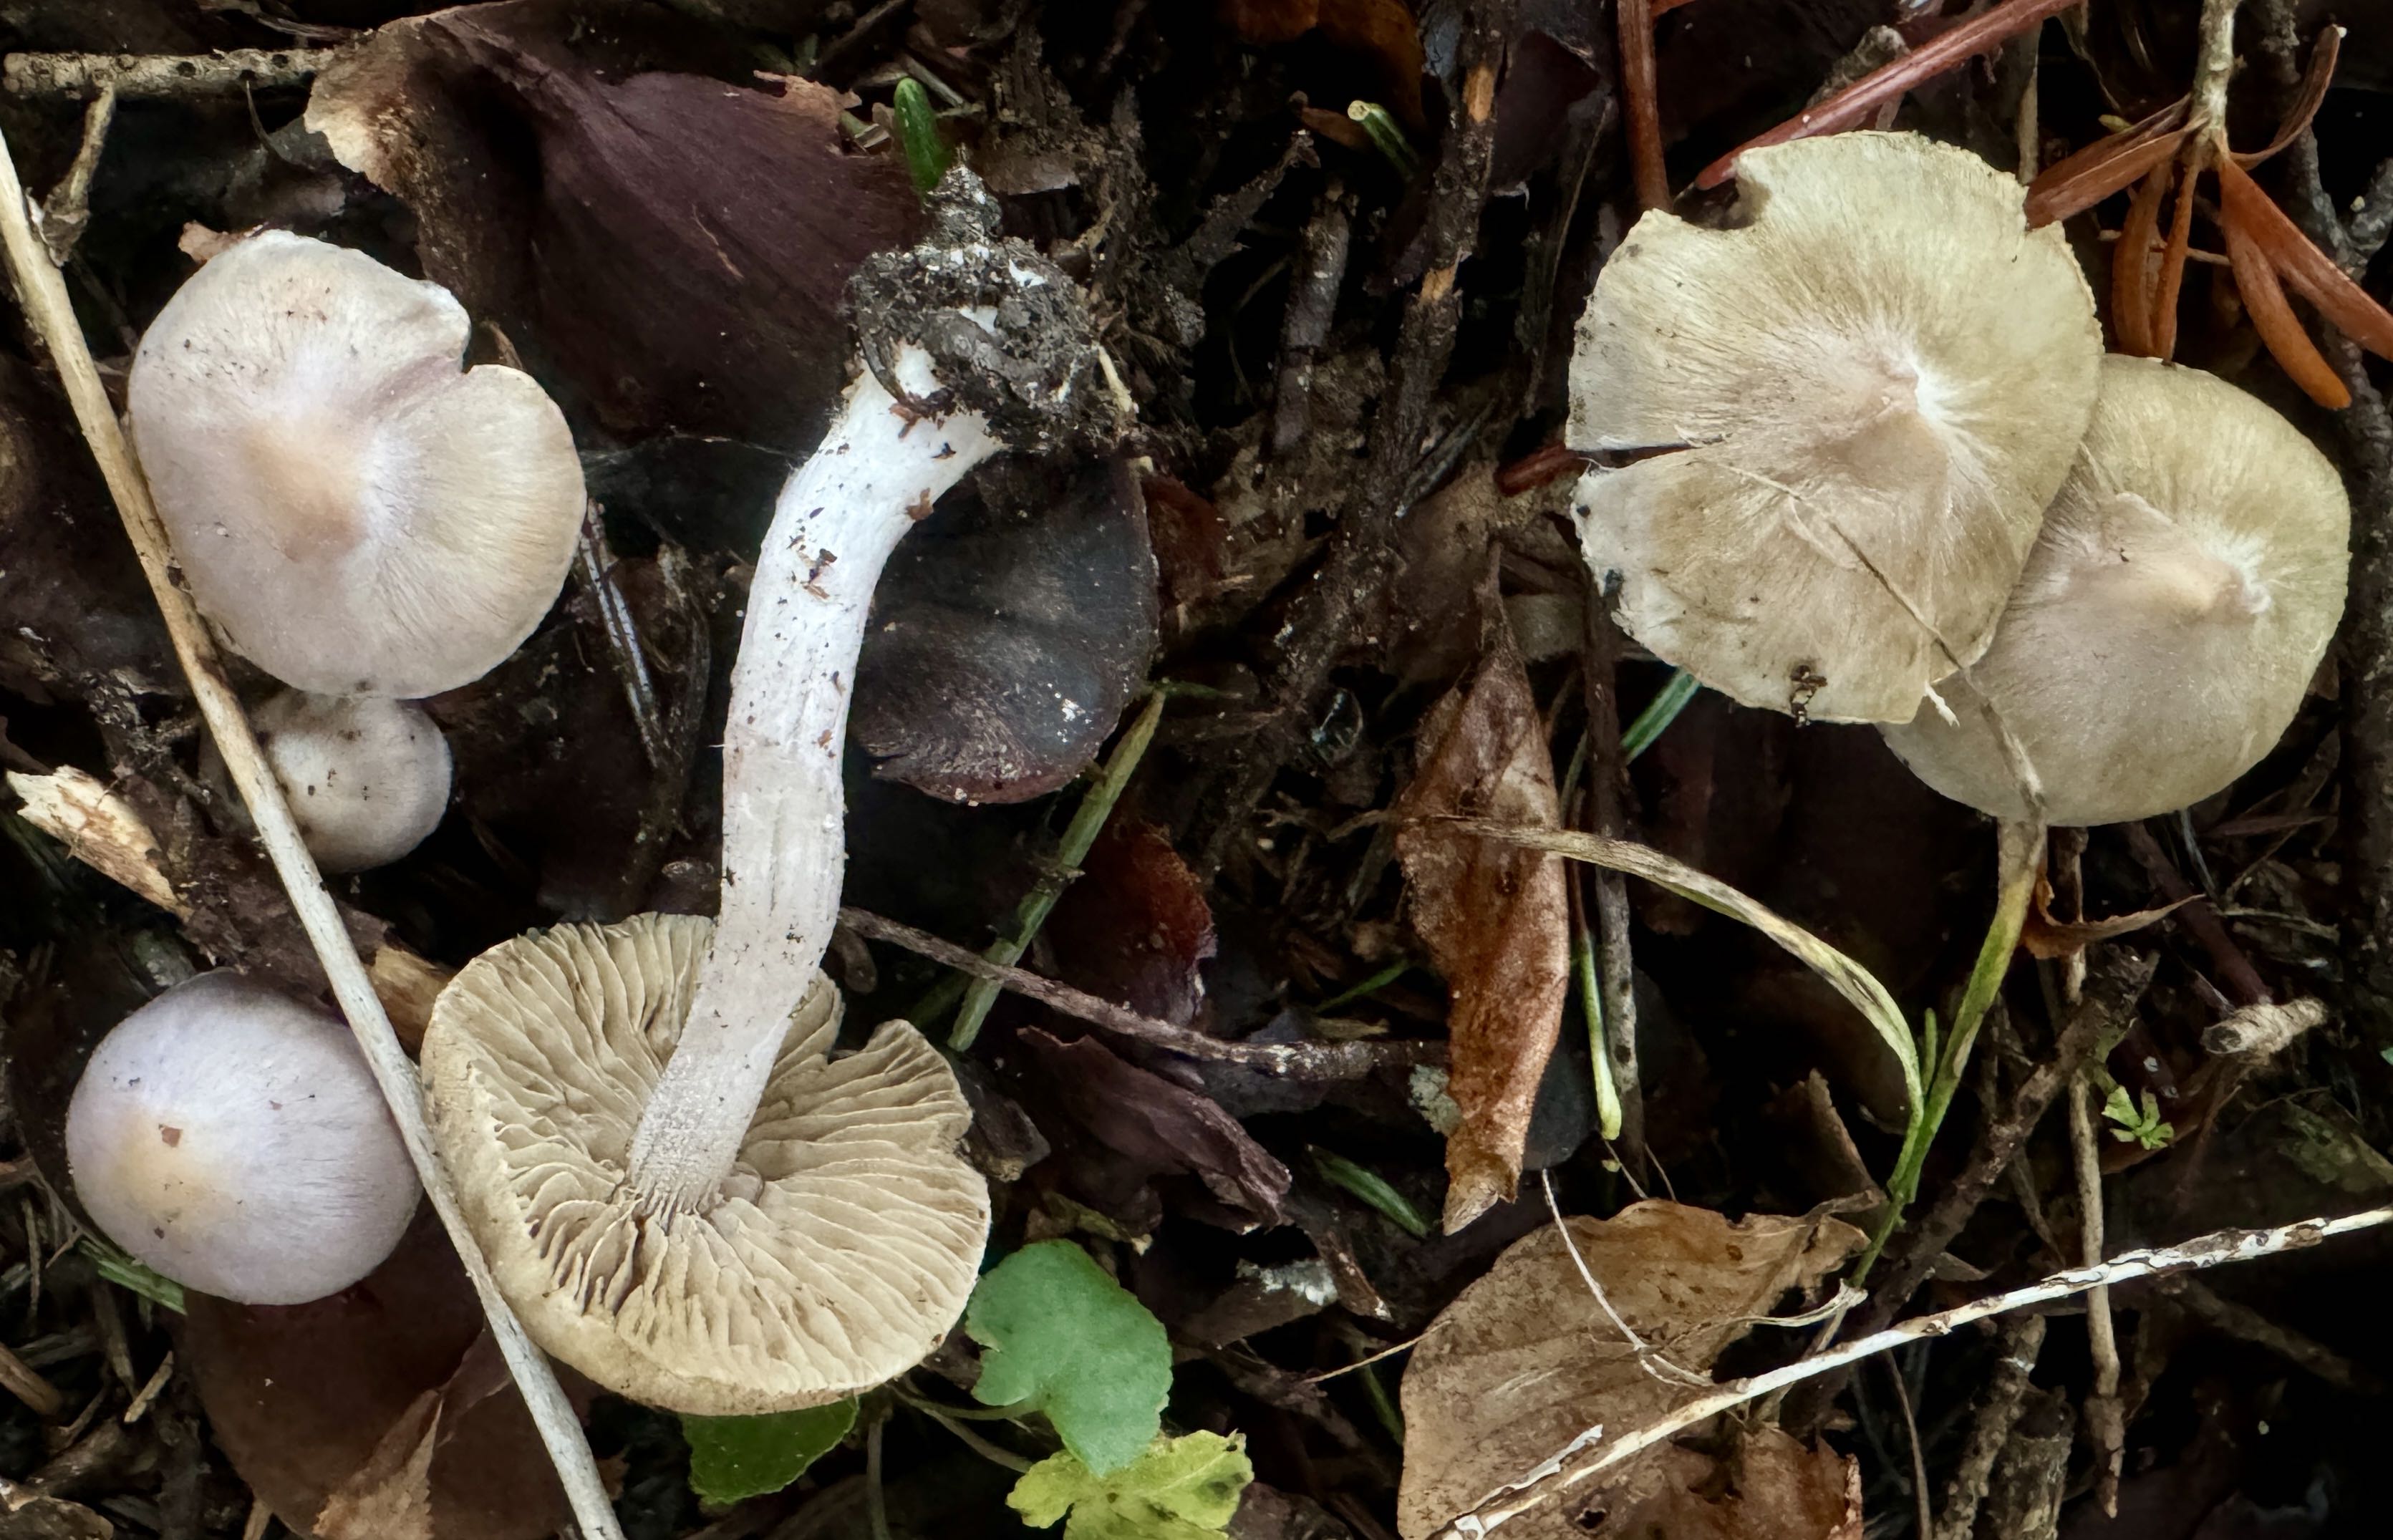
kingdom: Fungi
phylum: Basidiomycota
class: Agaricomycetes
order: Agaricales
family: Inocybaceae
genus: Inocybe
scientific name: Inocybe
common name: trævlhat
